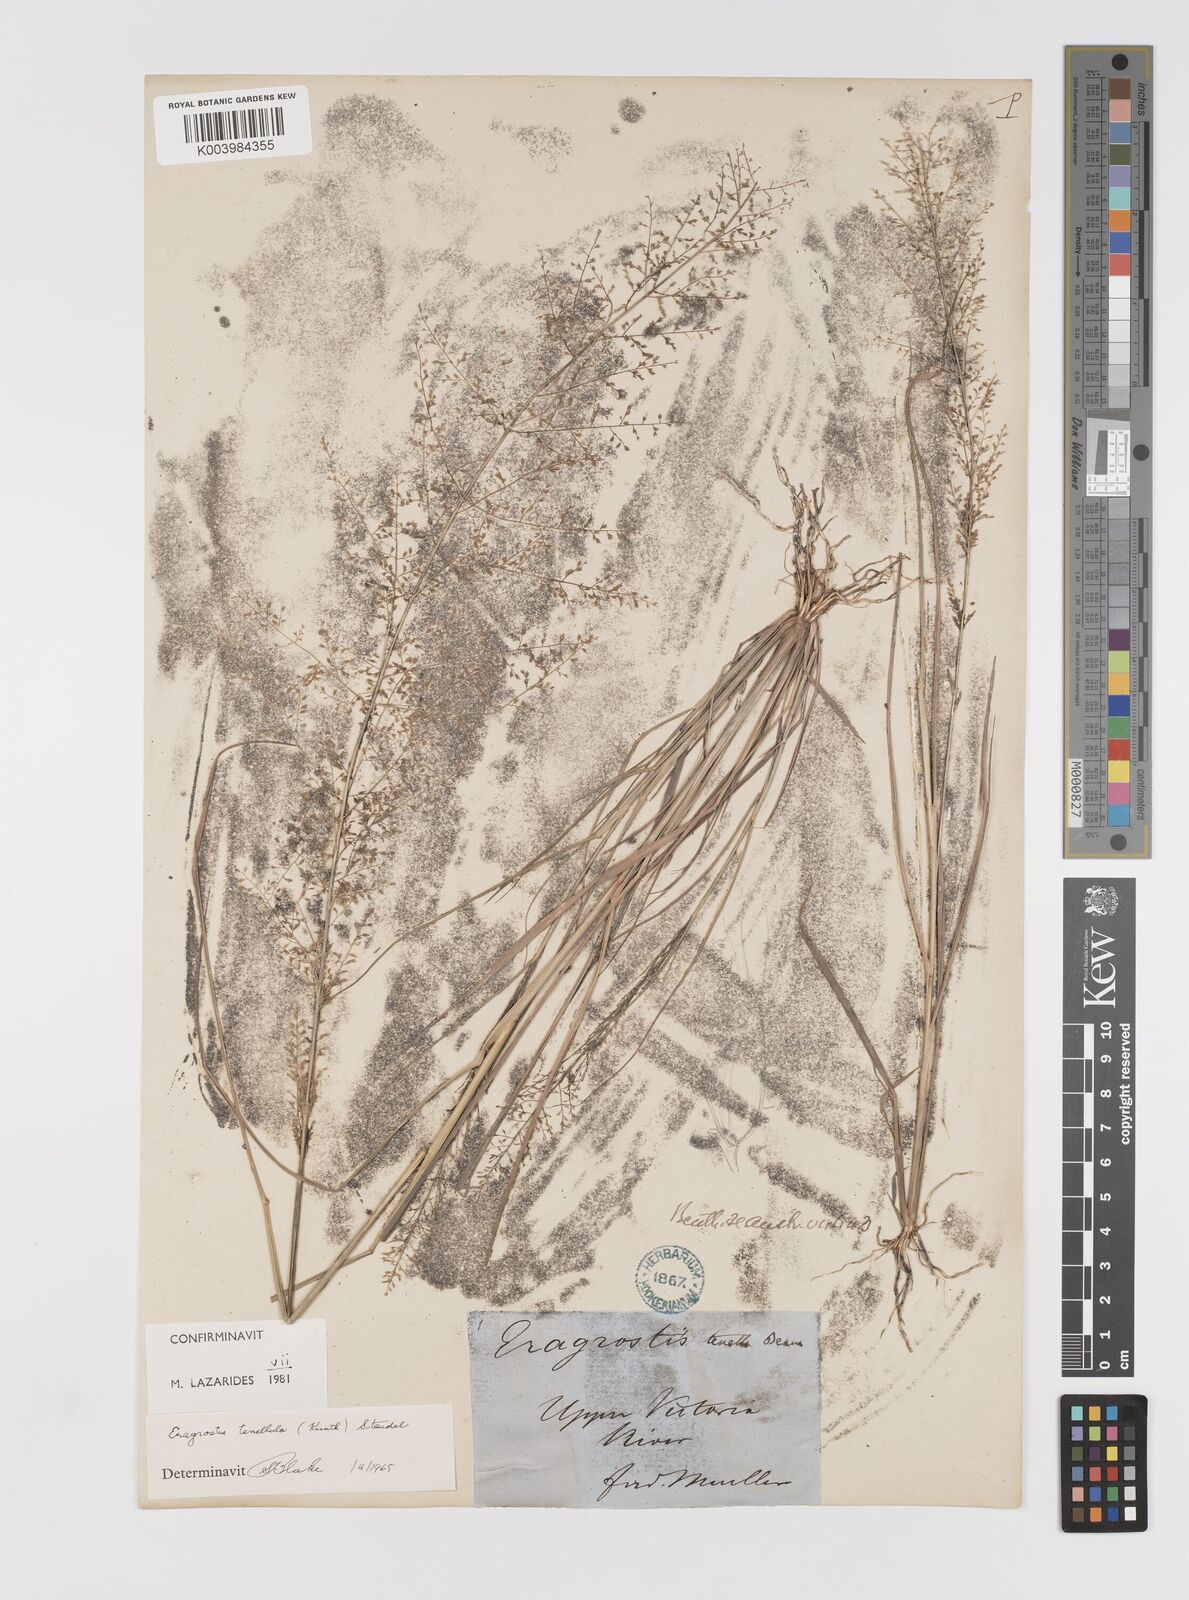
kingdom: Plantae
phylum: Tracheophyta
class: Liliopsida
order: Poales
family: Poaceae
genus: Eragrostis
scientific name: Eragrostis tenellula
